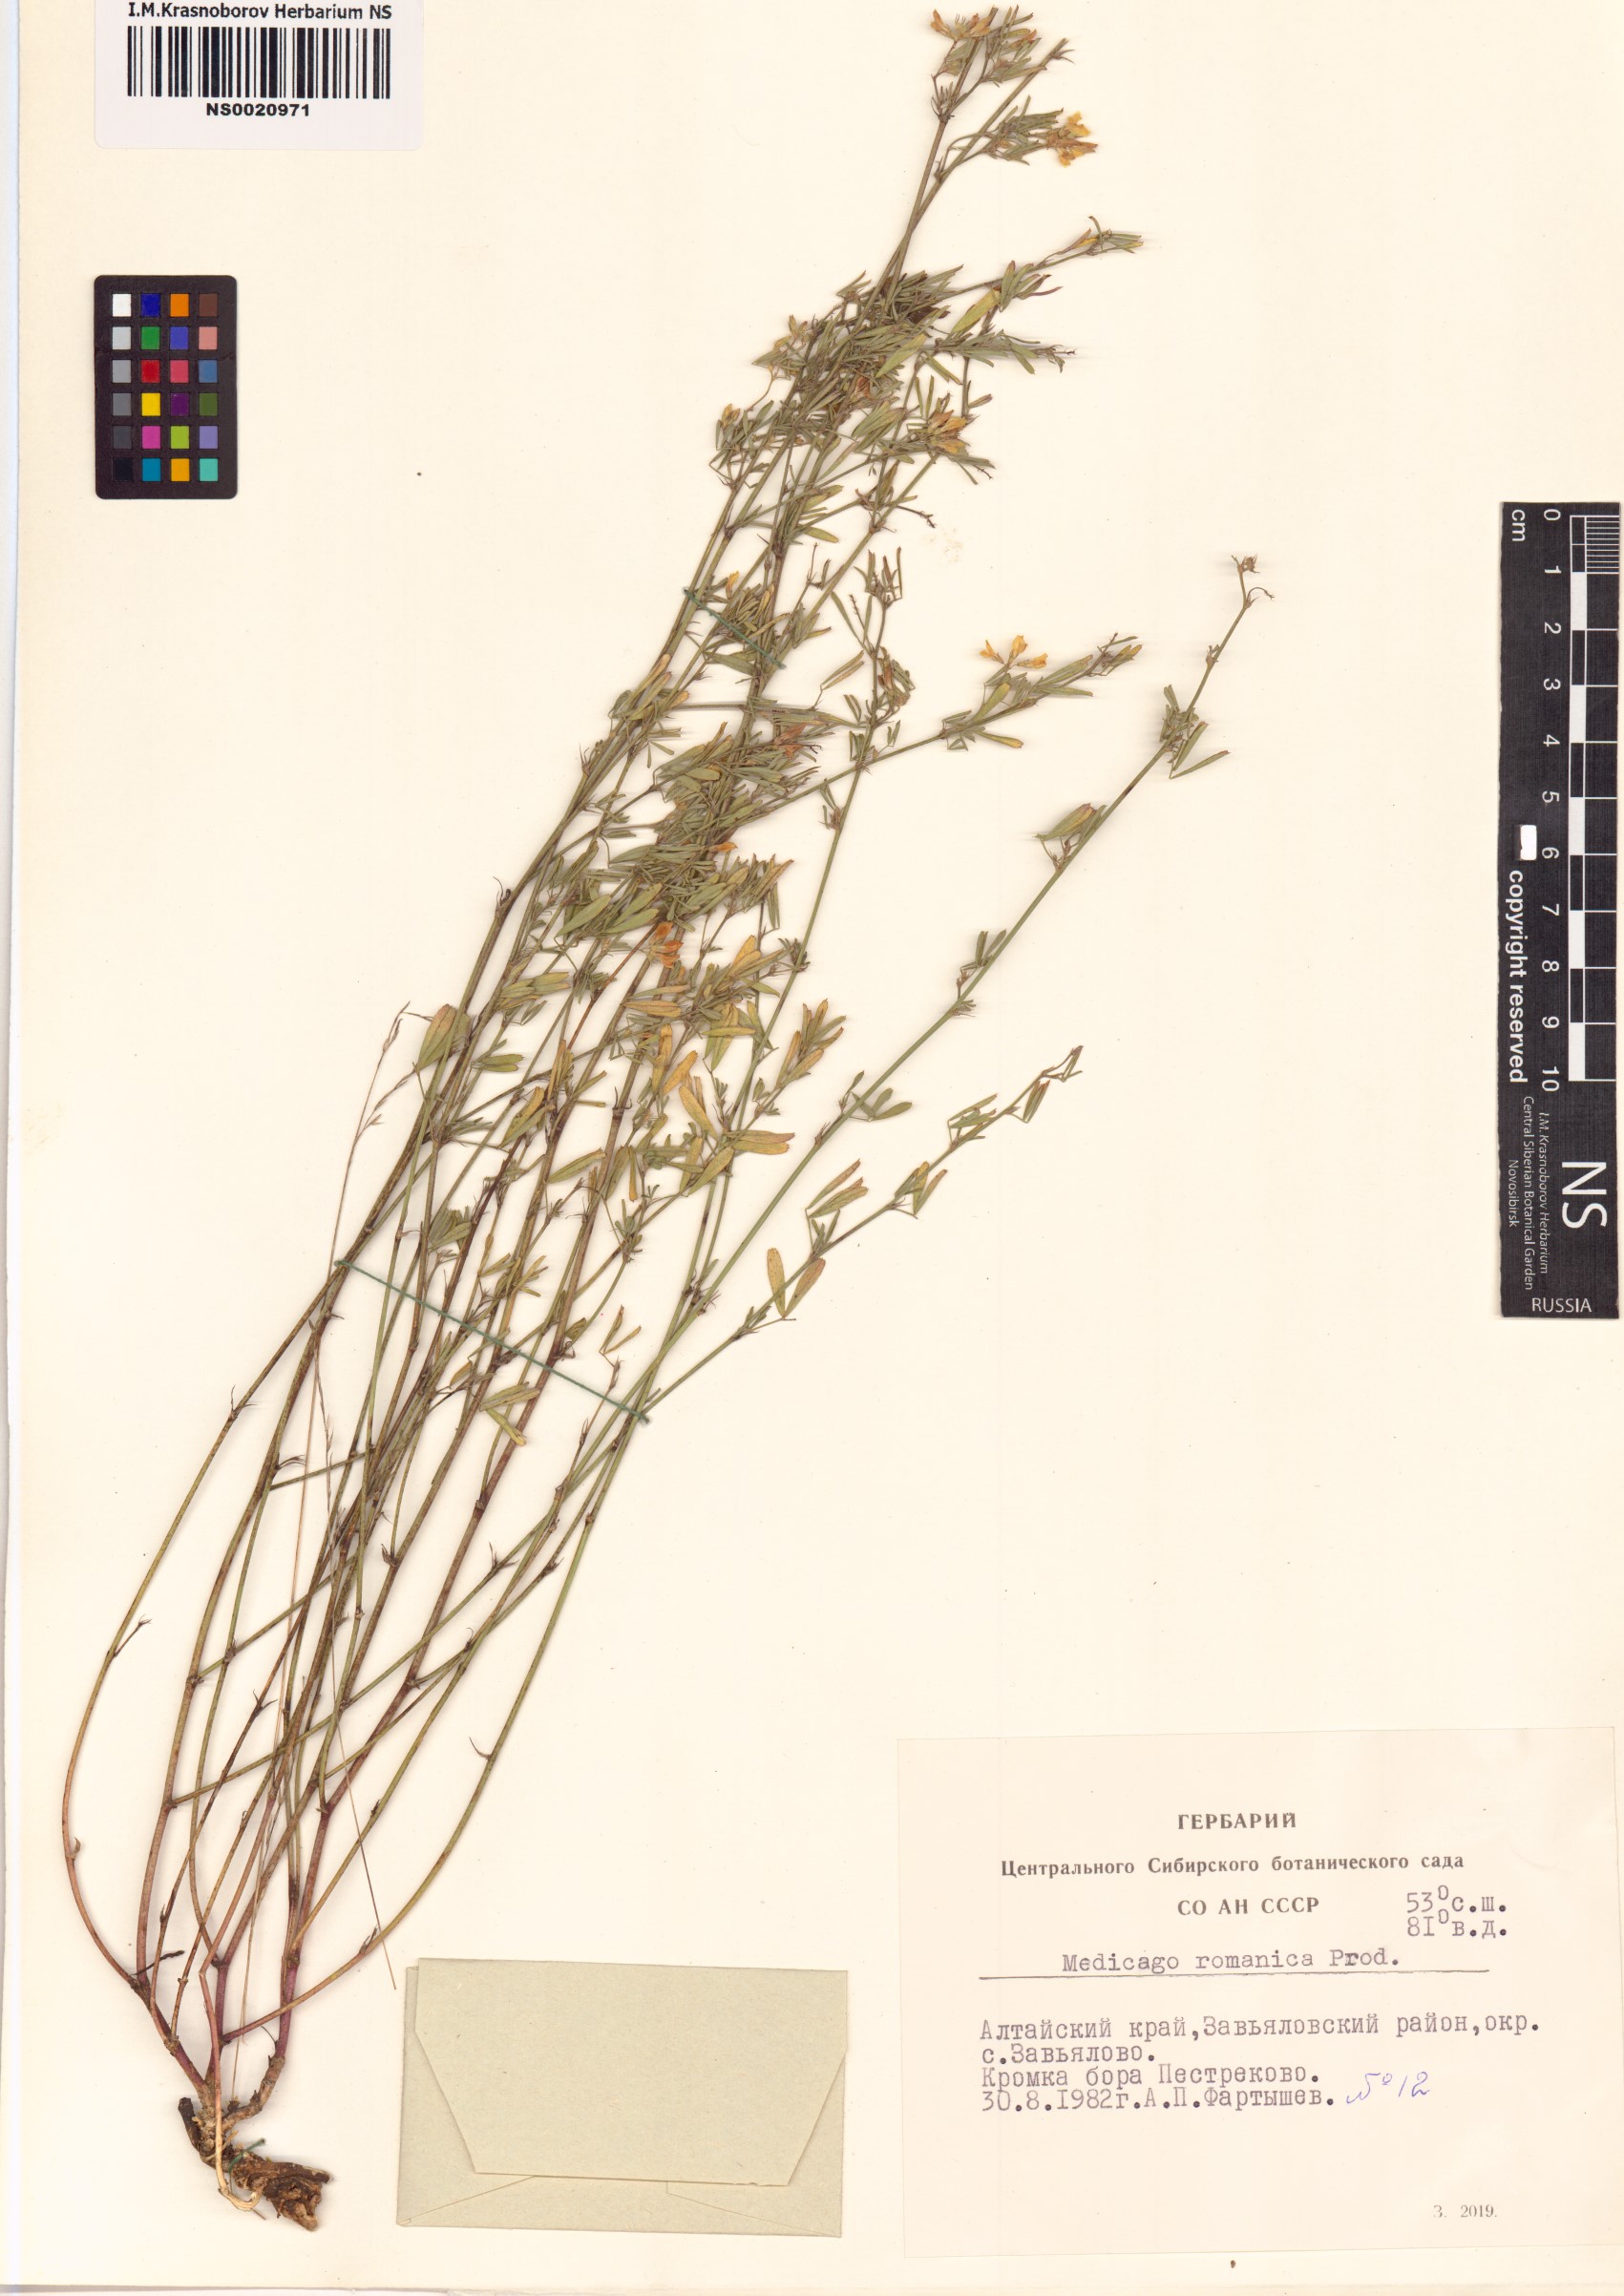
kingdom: Plantae
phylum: Tracheophyta
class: Magnoliopsida
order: Fabales
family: Fabaceae
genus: Medicago
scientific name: Medicago falcata
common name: Sickle medick
